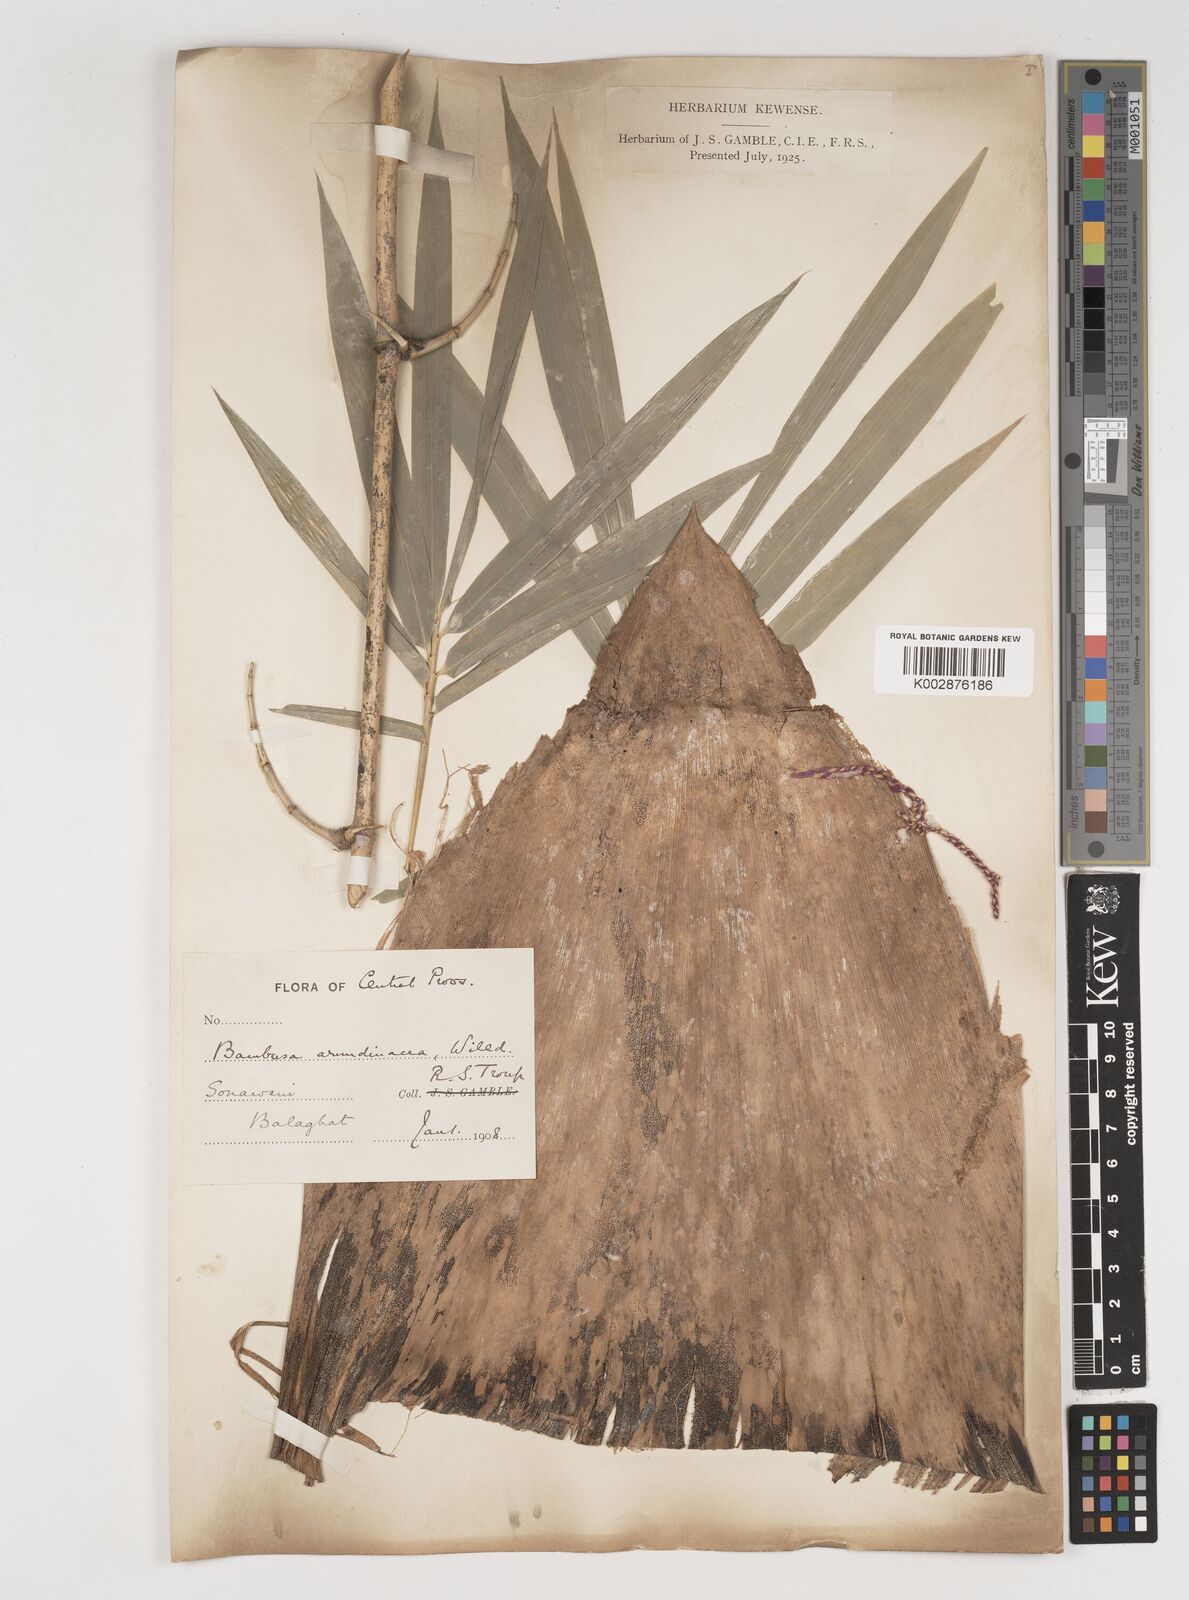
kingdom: Plantae
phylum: Tracheophyta
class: Liliopsida
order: Poales
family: Poaceae
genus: Bambusa
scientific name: Bambusa bambos
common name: Indian thorny bamboo
